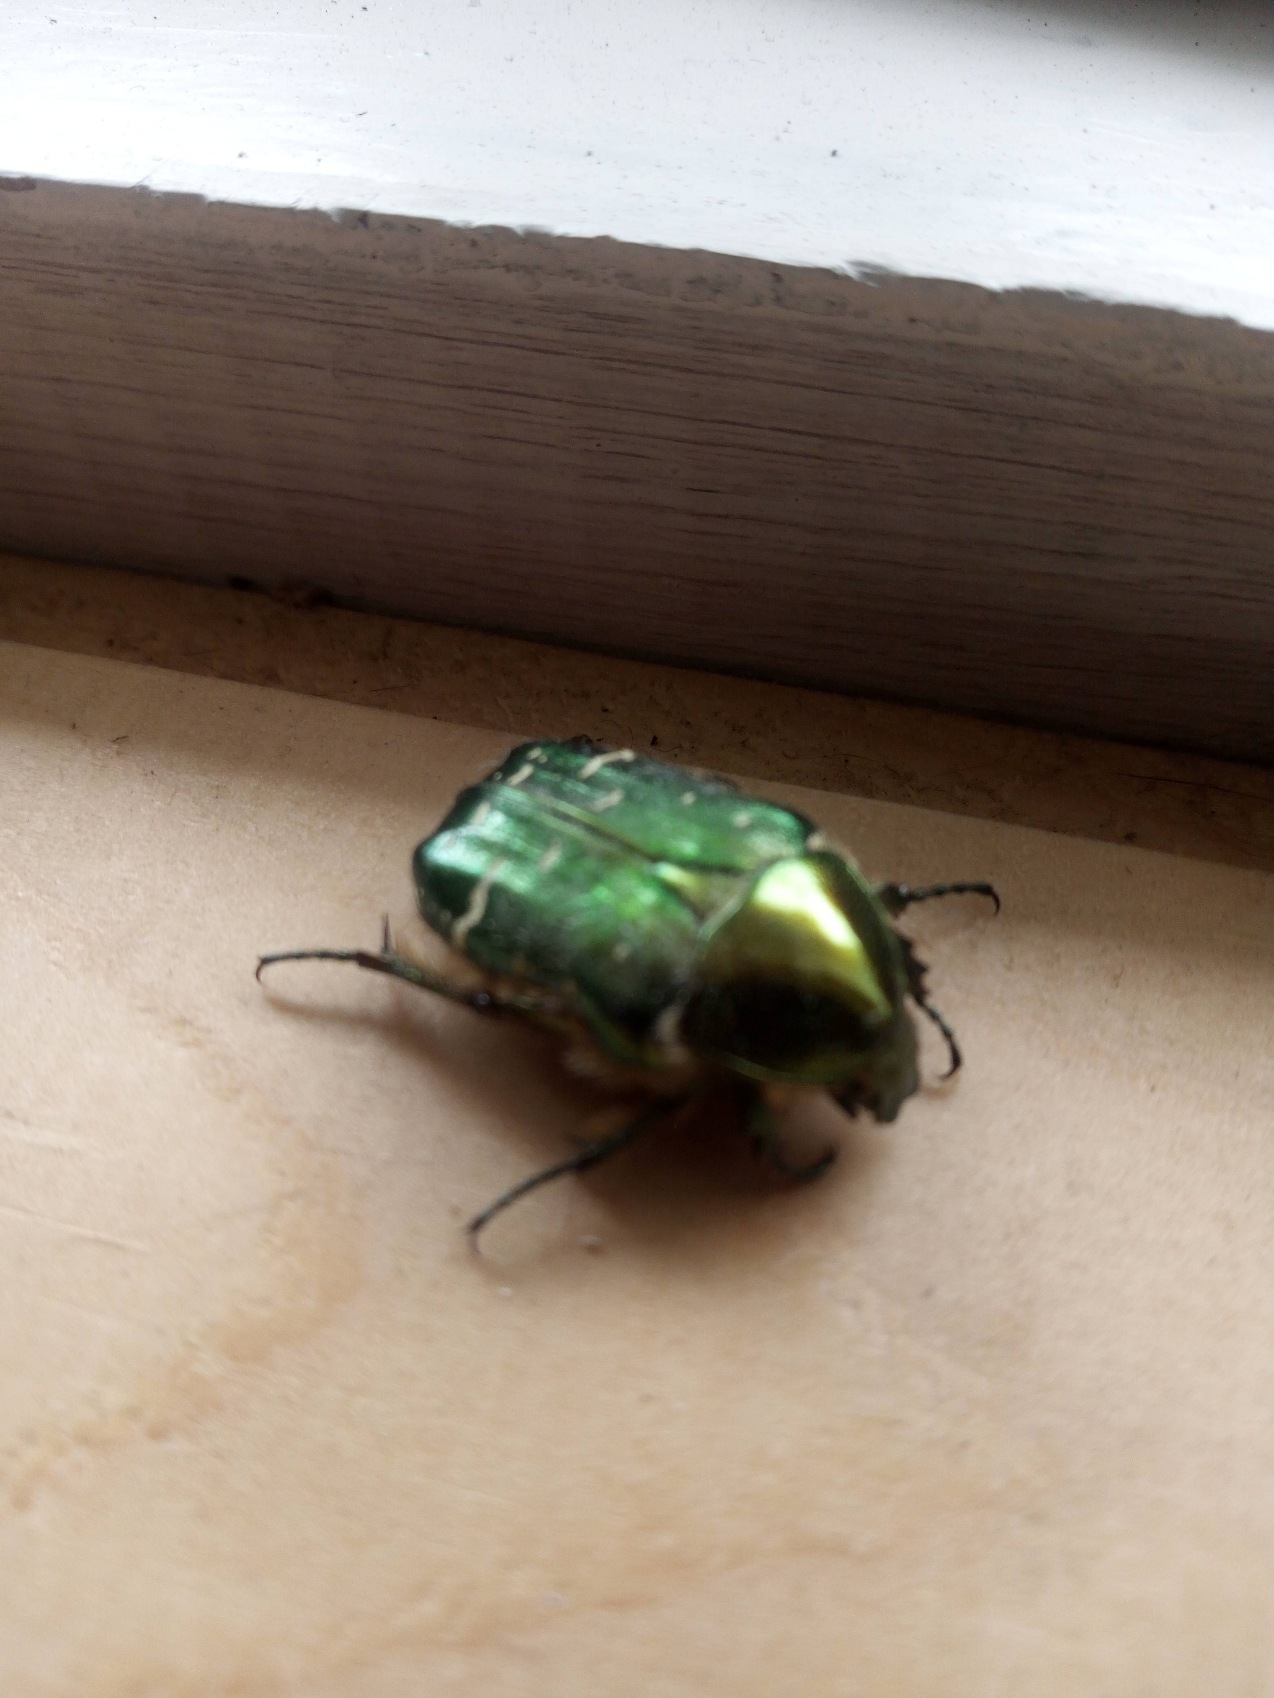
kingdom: Animalia
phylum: Arthropoda
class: Insecta
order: Coleoptera
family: Scarabaeidae
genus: Cetonia
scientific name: Cetonia aurata
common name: Grøn guldbasse
